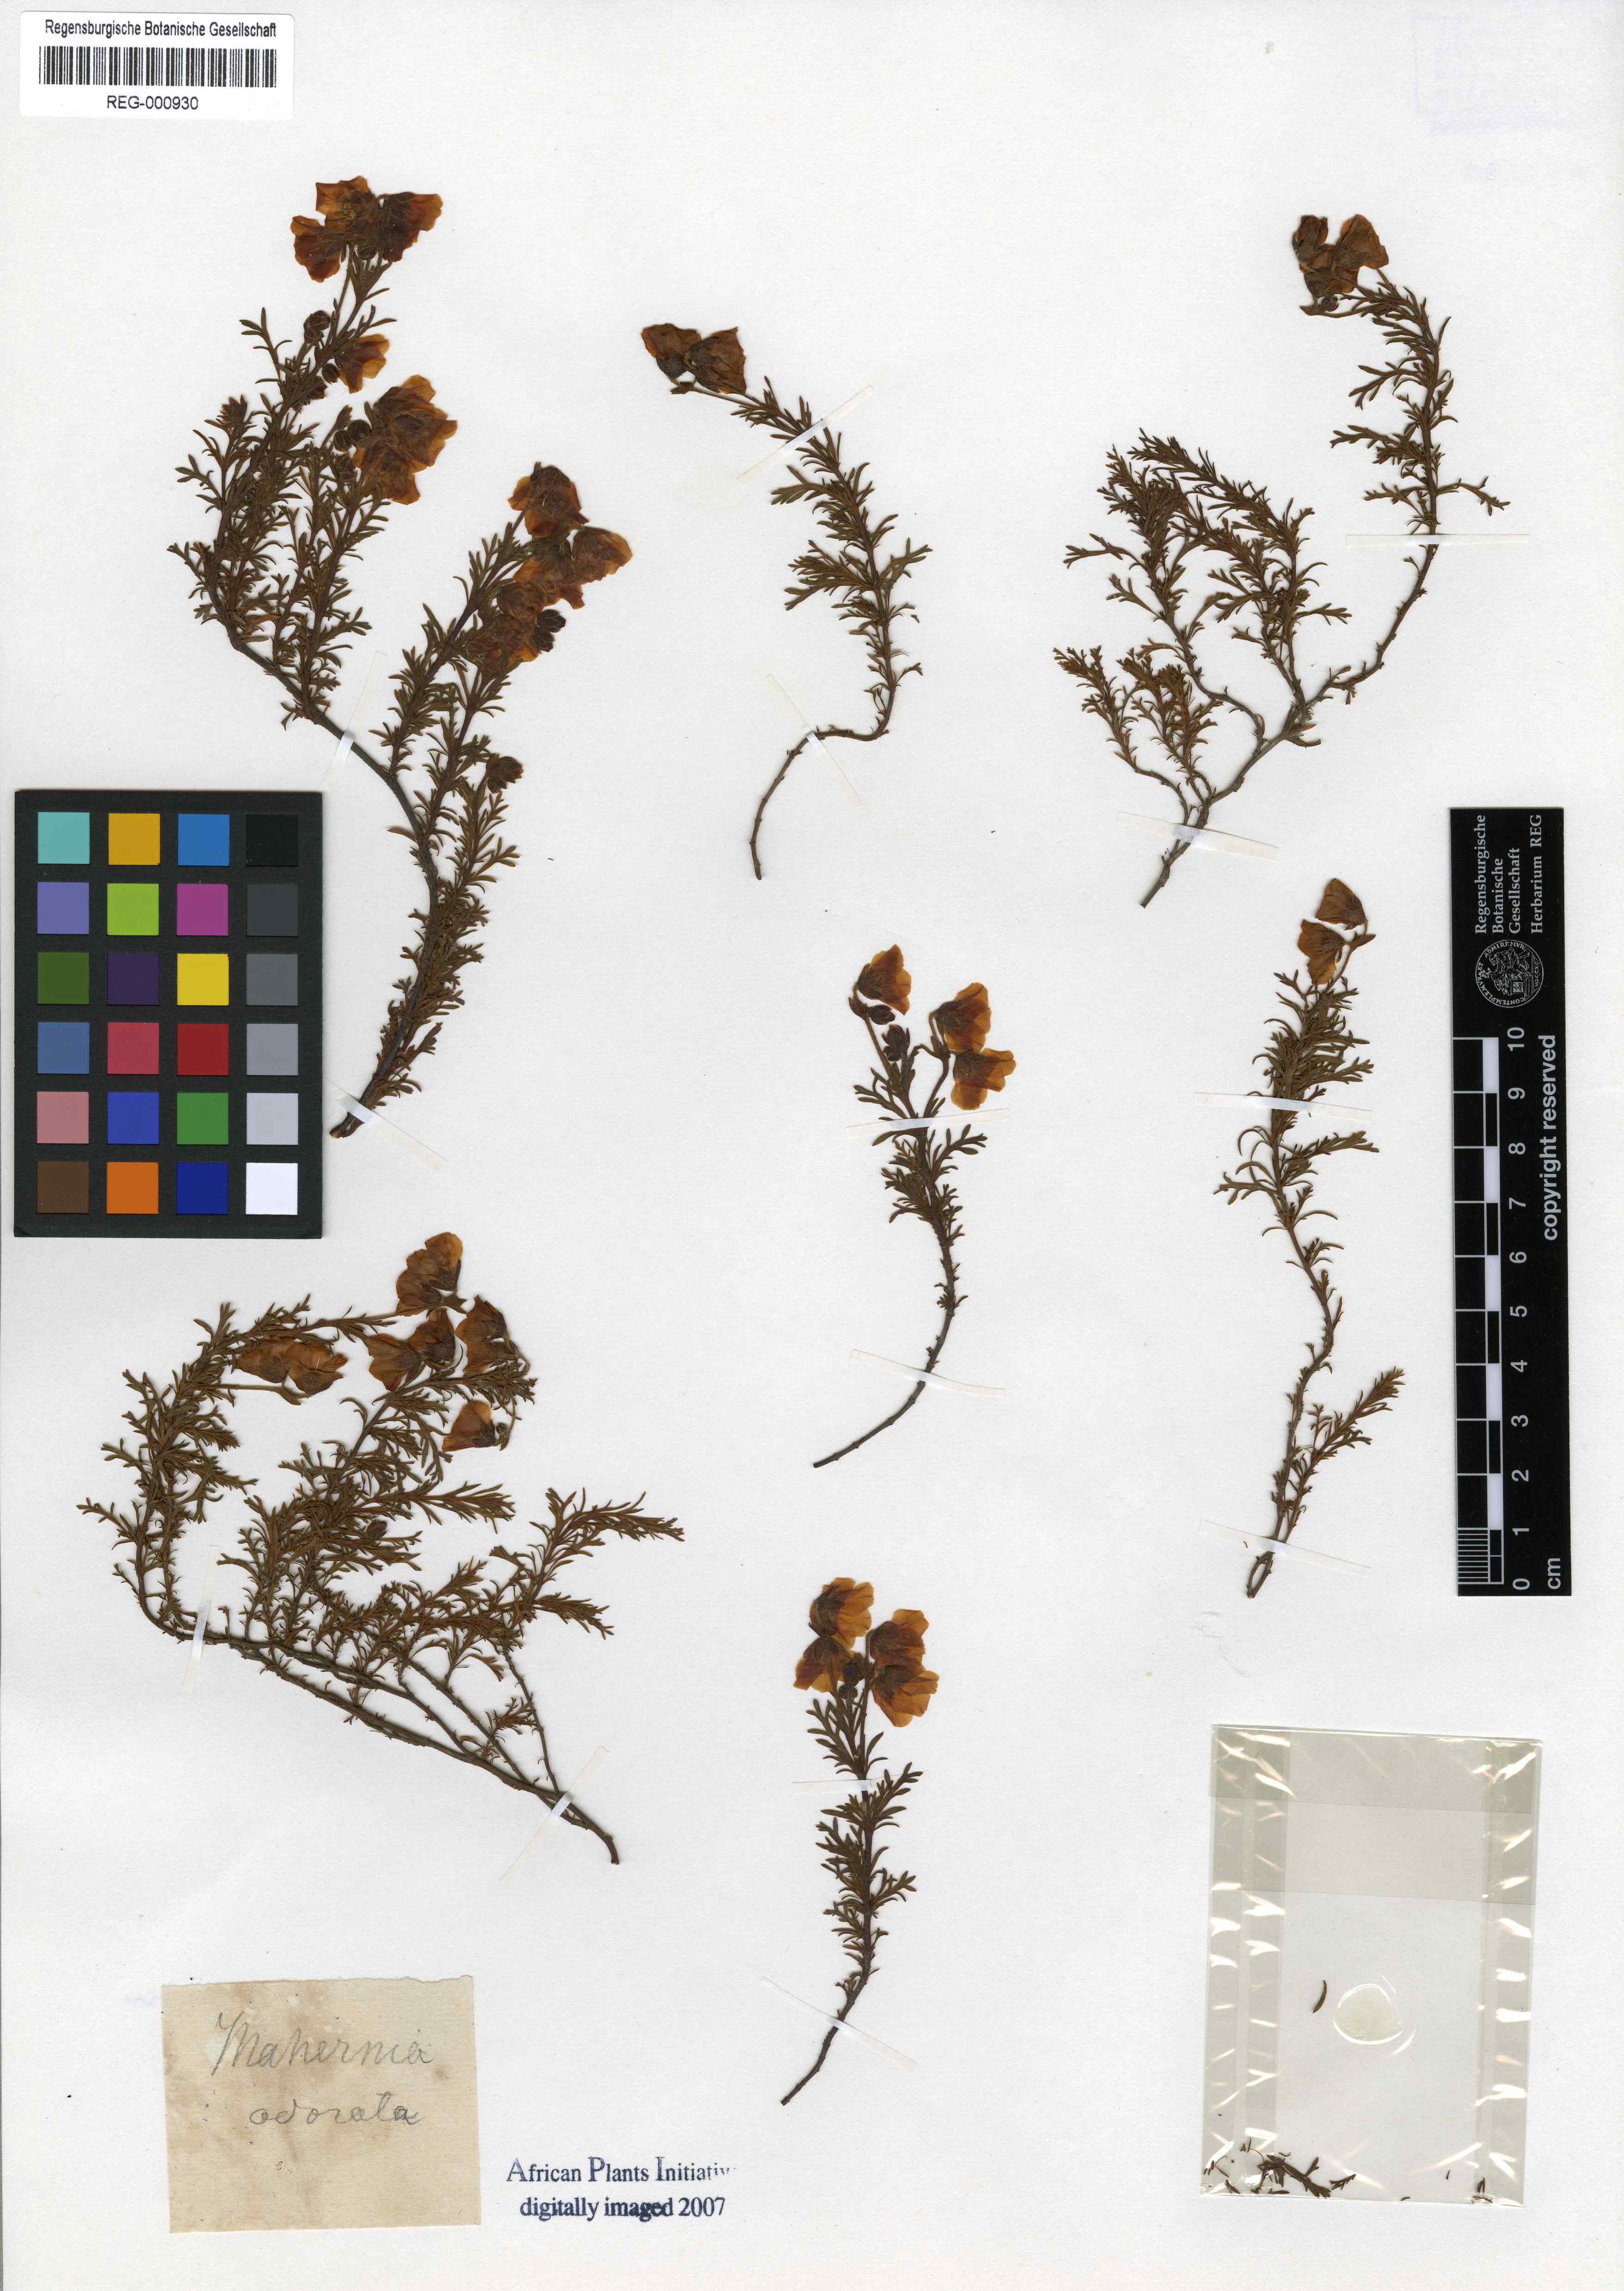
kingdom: Plantae
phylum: Tracheophyta
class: Magnoliopsida
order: Malvales
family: Malvaceae
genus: Hermannia
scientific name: Hermannia scabra
